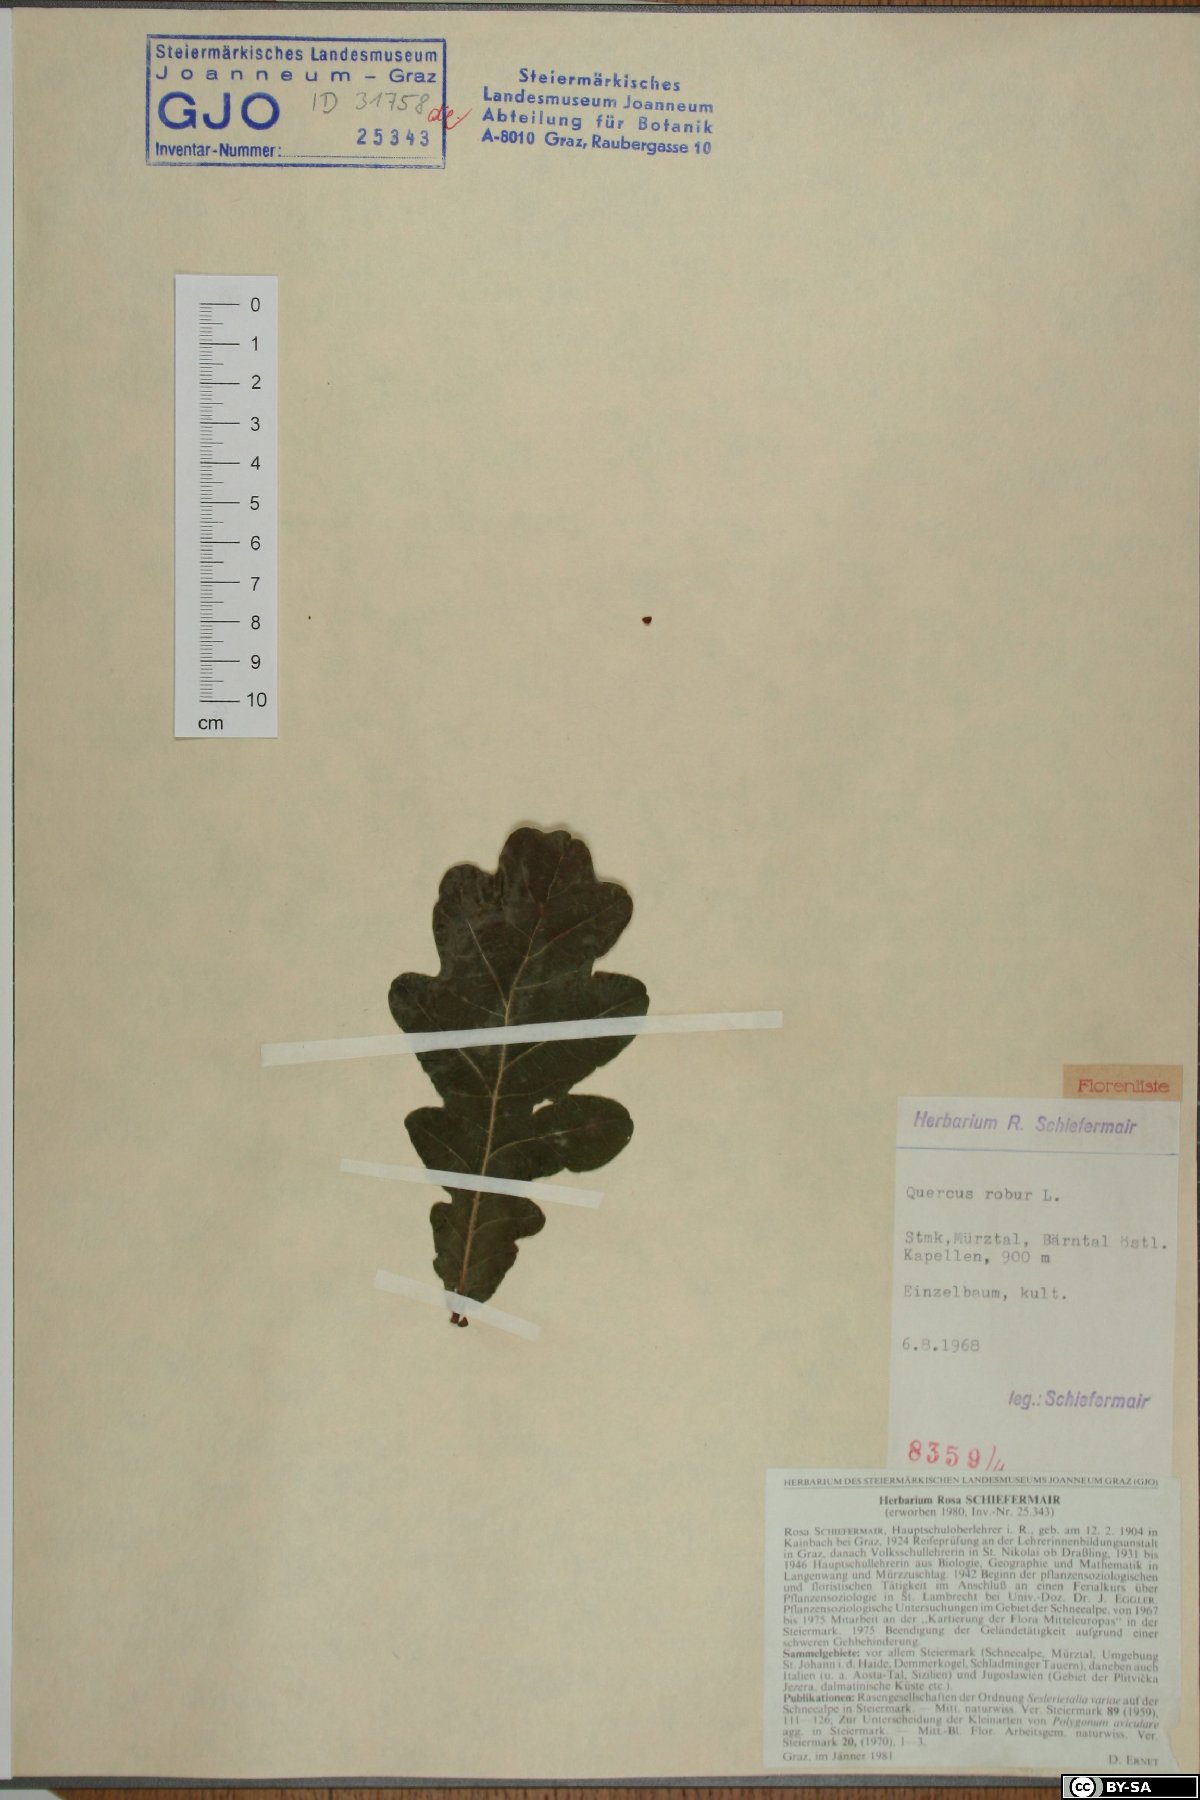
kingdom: Plantae
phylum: Tracheophyta
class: Magnoliopsida
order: Fagales
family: Fagaceae
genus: Quercus
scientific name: Quercus robur
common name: Pedunculate oak
